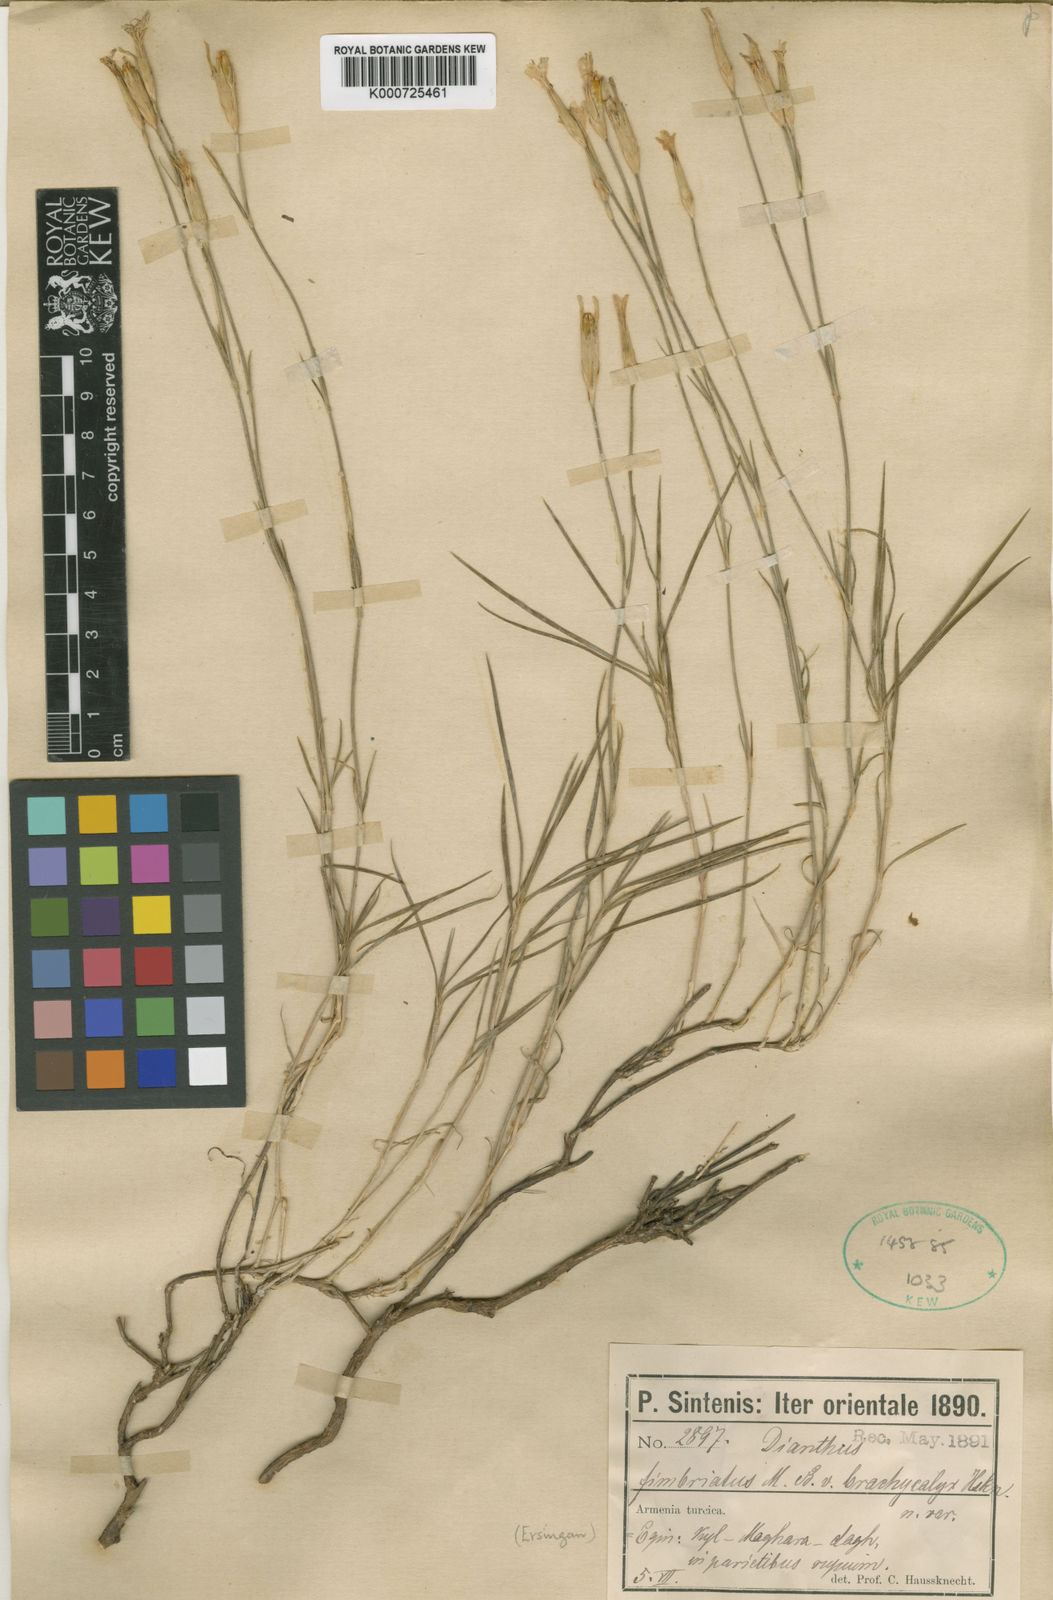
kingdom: Plantae
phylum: Tracheophyta
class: Magnoliopsida
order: Caryophyllales
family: Caryophyllaceae
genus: Dianthus
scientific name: Dianthus orientalis
